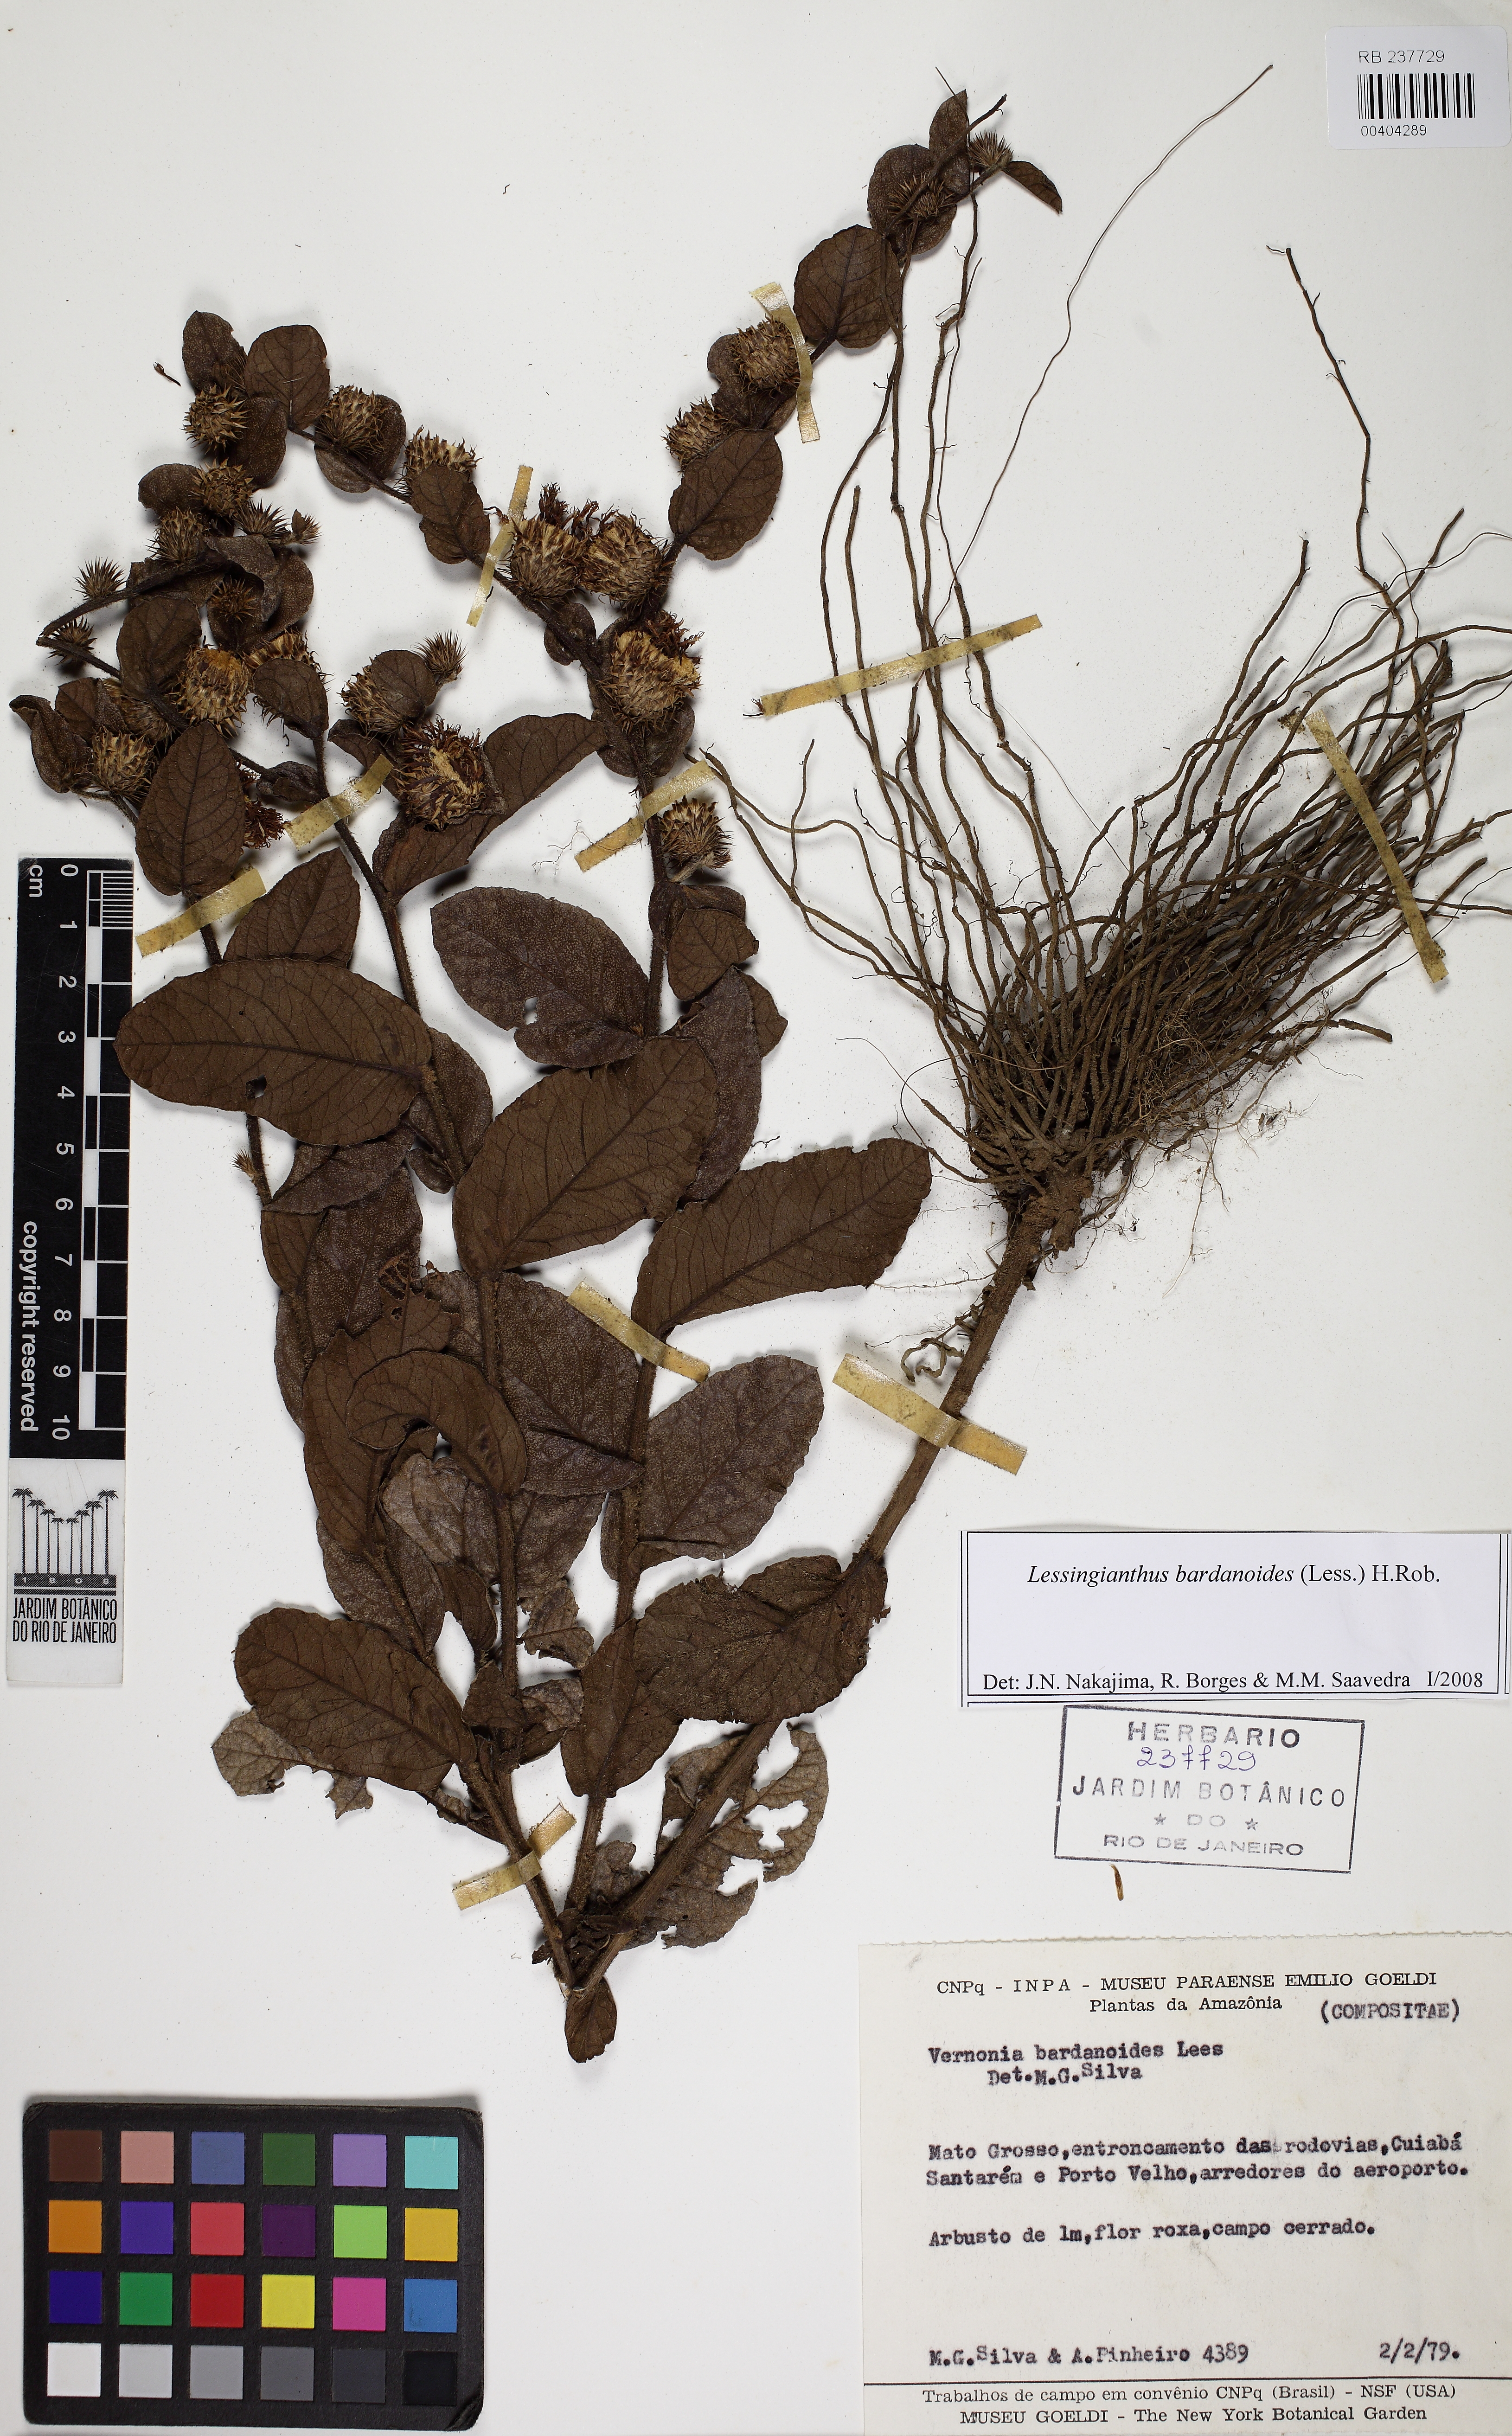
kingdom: Plantae
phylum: Tracheophyta
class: Magnoliopsida
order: Asterales
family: Asteraceae
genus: Lessingianthus
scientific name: Lessingianthus bardanioides
